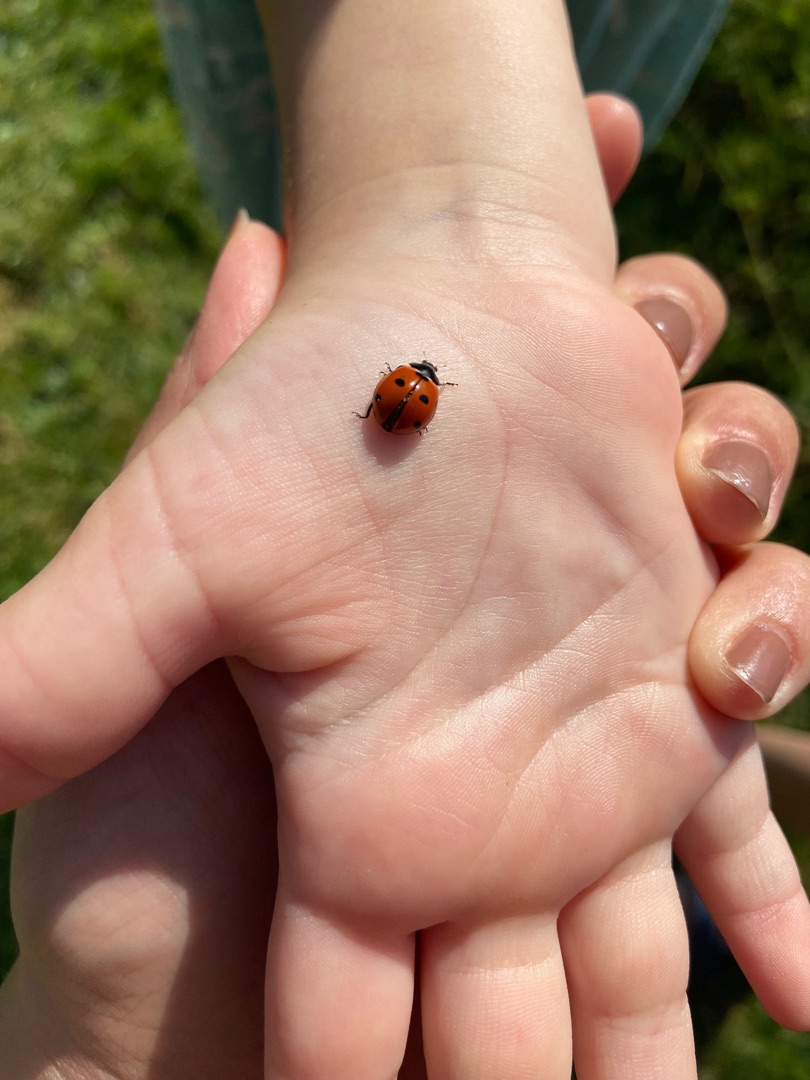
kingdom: Animalia
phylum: Arthropoda
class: Insecta
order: Coleoptera
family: Coccinellidae
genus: Coccinella
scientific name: Coccinella septempunctata
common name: Syvplettet mariehøne
